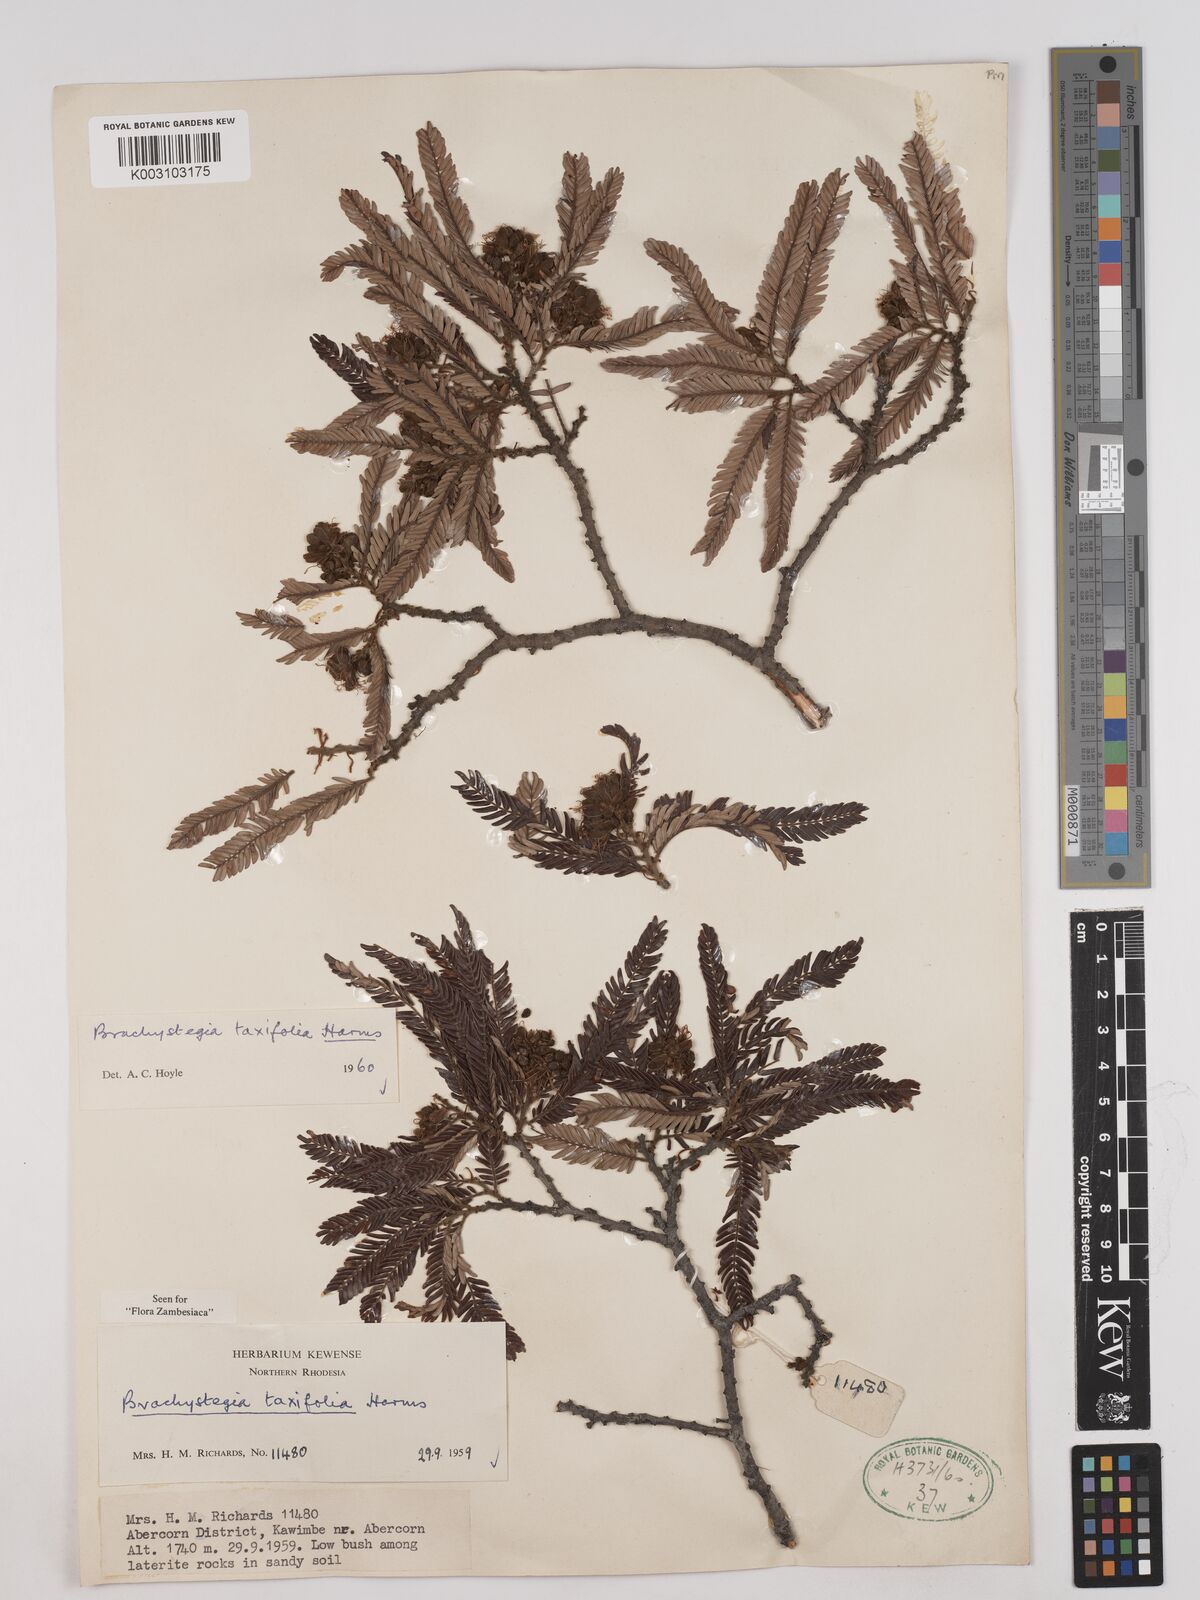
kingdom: Plantae
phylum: Tracheophyta
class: Magnoliopsida
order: Fabales
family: Fabaceae
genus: Brachystegia
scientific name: Brachystegia taxifolia
